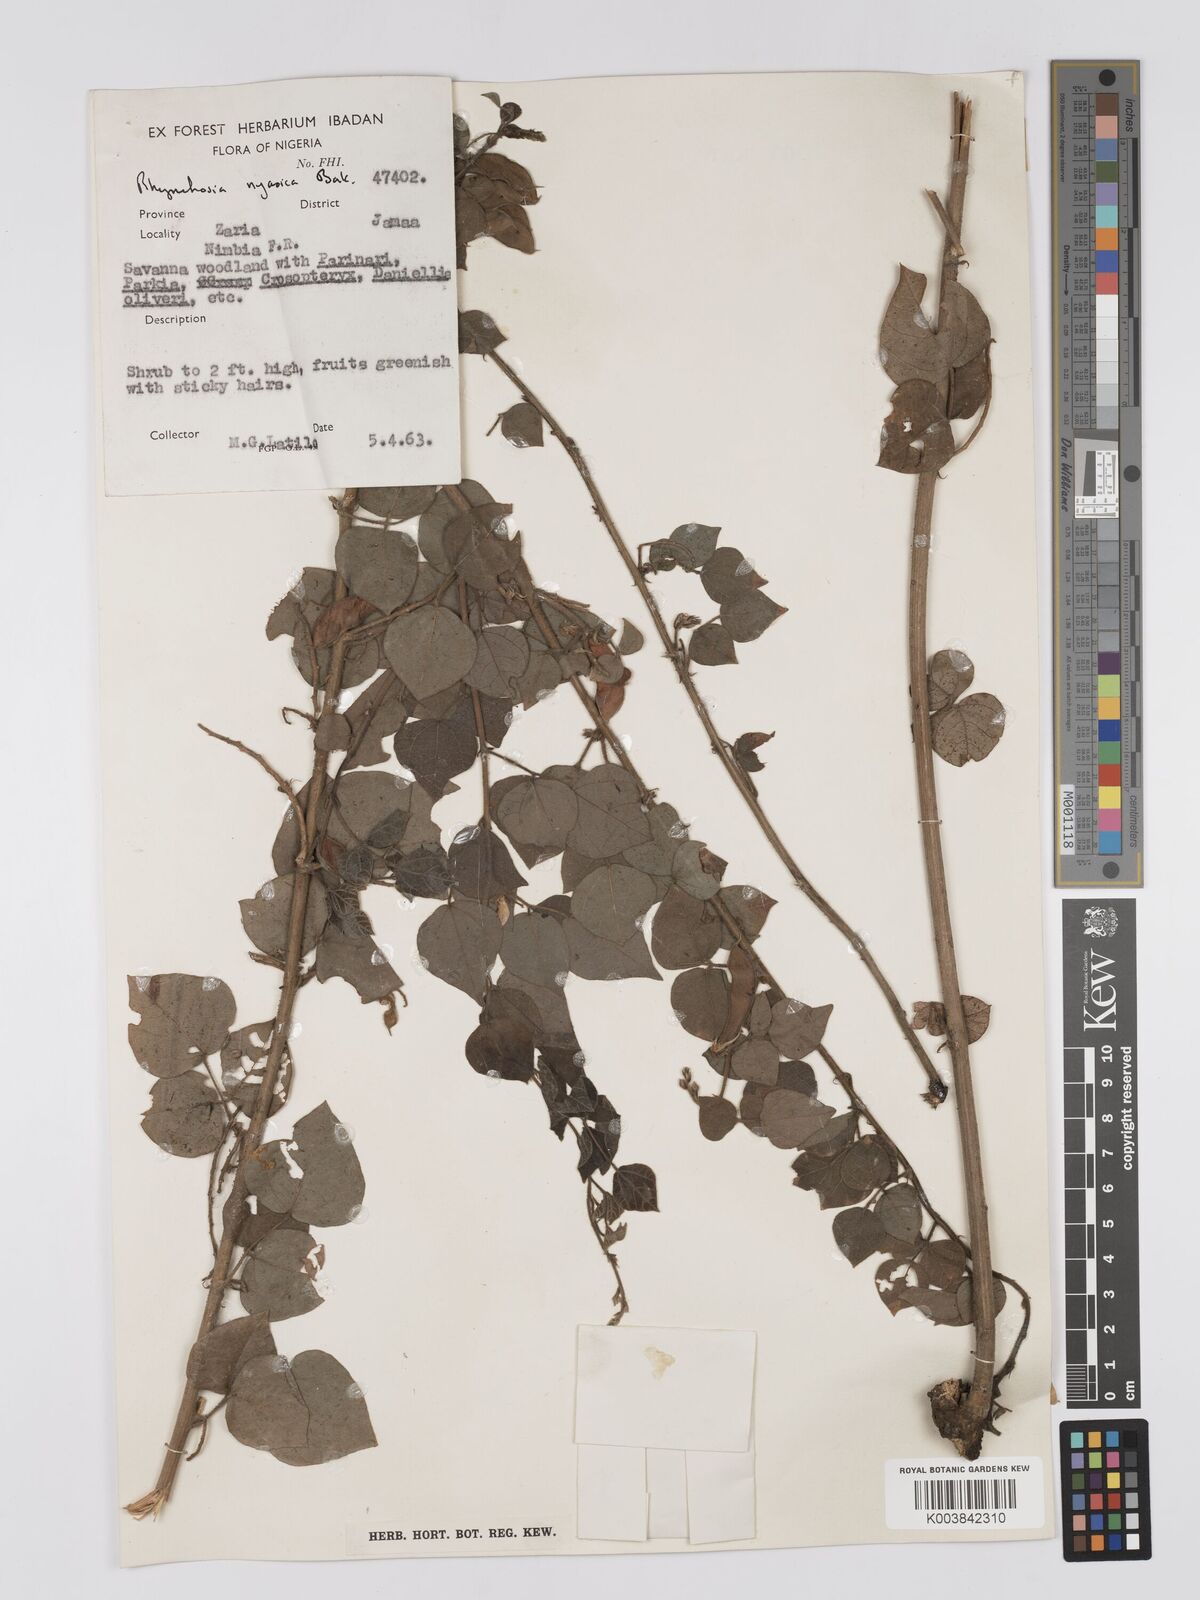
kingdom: Plantae
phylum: Tracheophyta
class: Magnoliopsida
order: Fabales
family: Fabaceae
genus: Rhynchosia
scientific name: Rhynchosia nyasica
